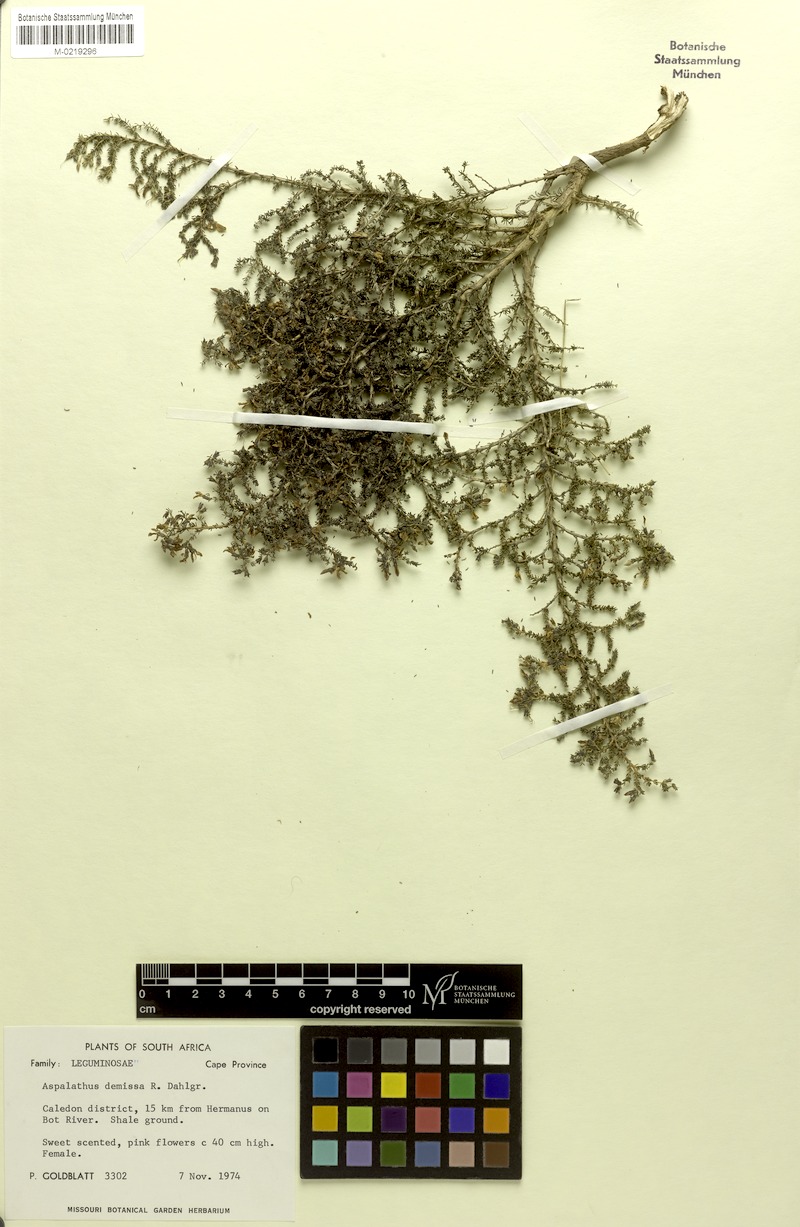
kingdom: Plantae
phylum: Tracheophyta
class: Magnoliopsida
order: Fabales
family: Fabaceae
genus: Aspalathus
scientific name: Aspalathus
